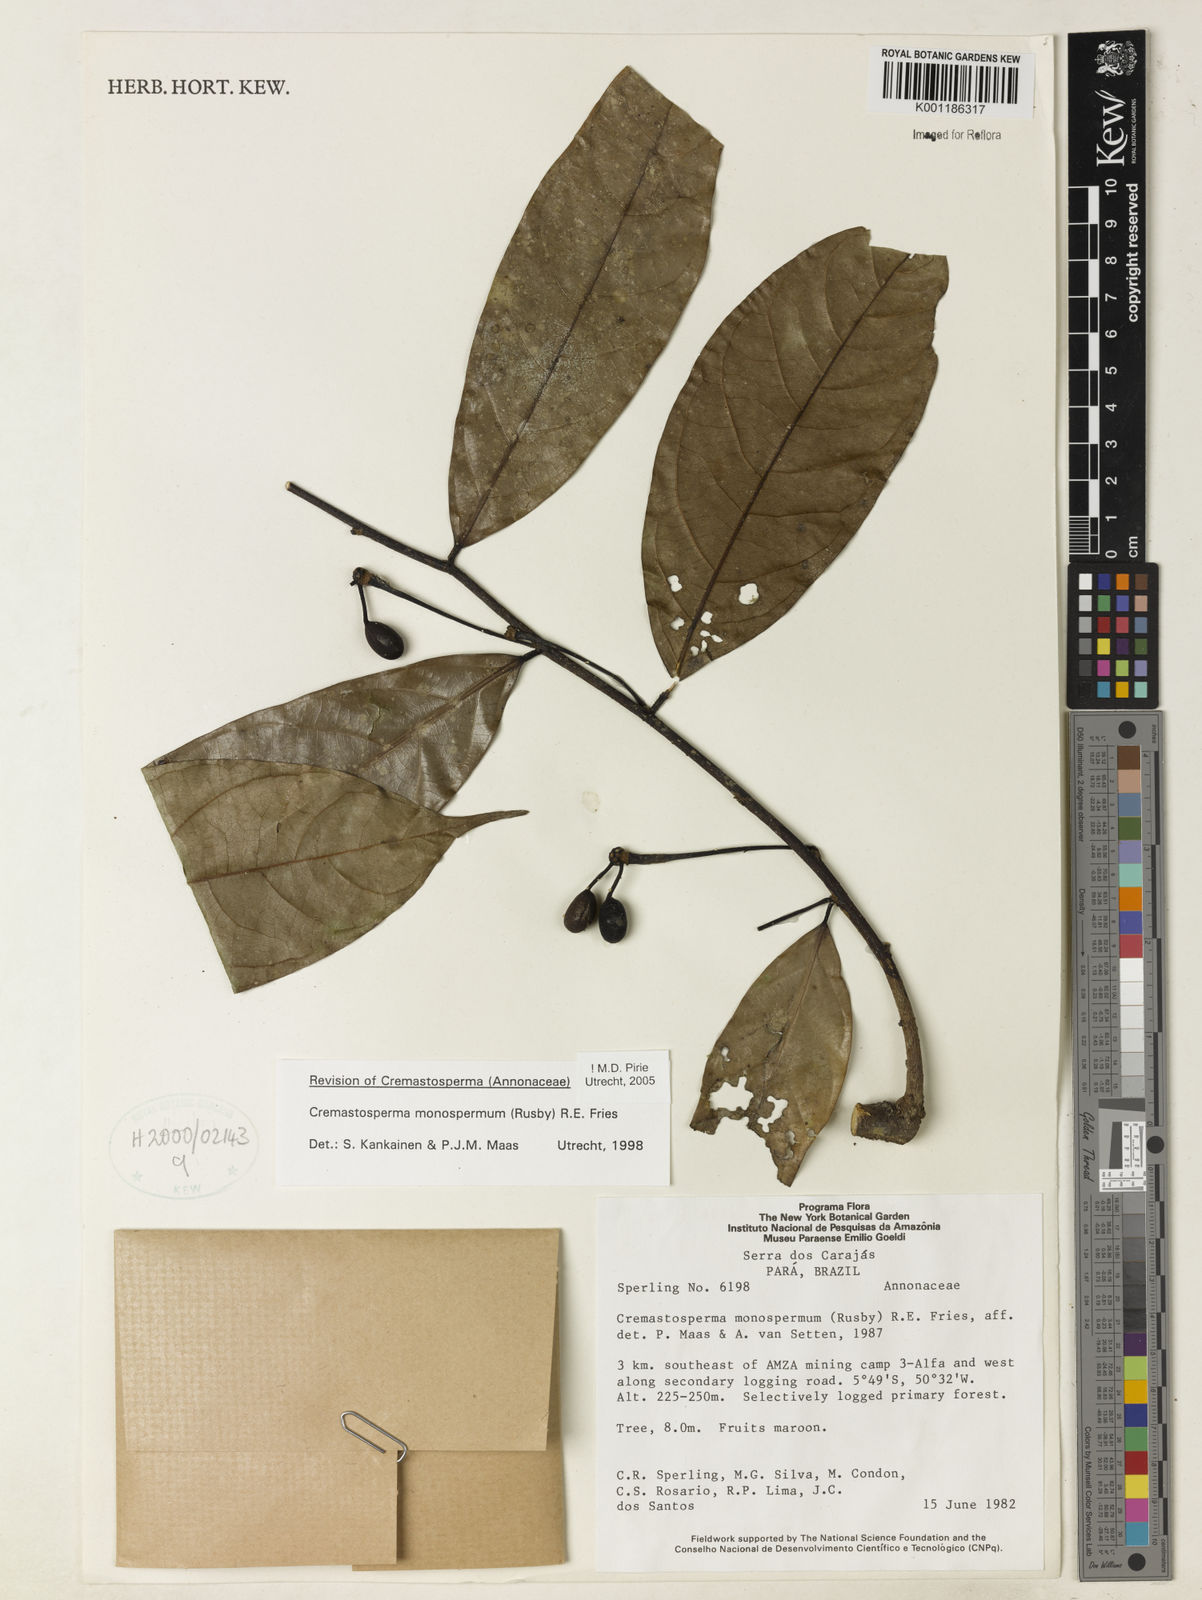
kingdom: Plantae
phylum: Tracheophyta
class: Magnoliopsida
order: Magnoliales
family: Annonaceae
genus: Cremastosperma
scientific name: Cremastosperma monospermum
